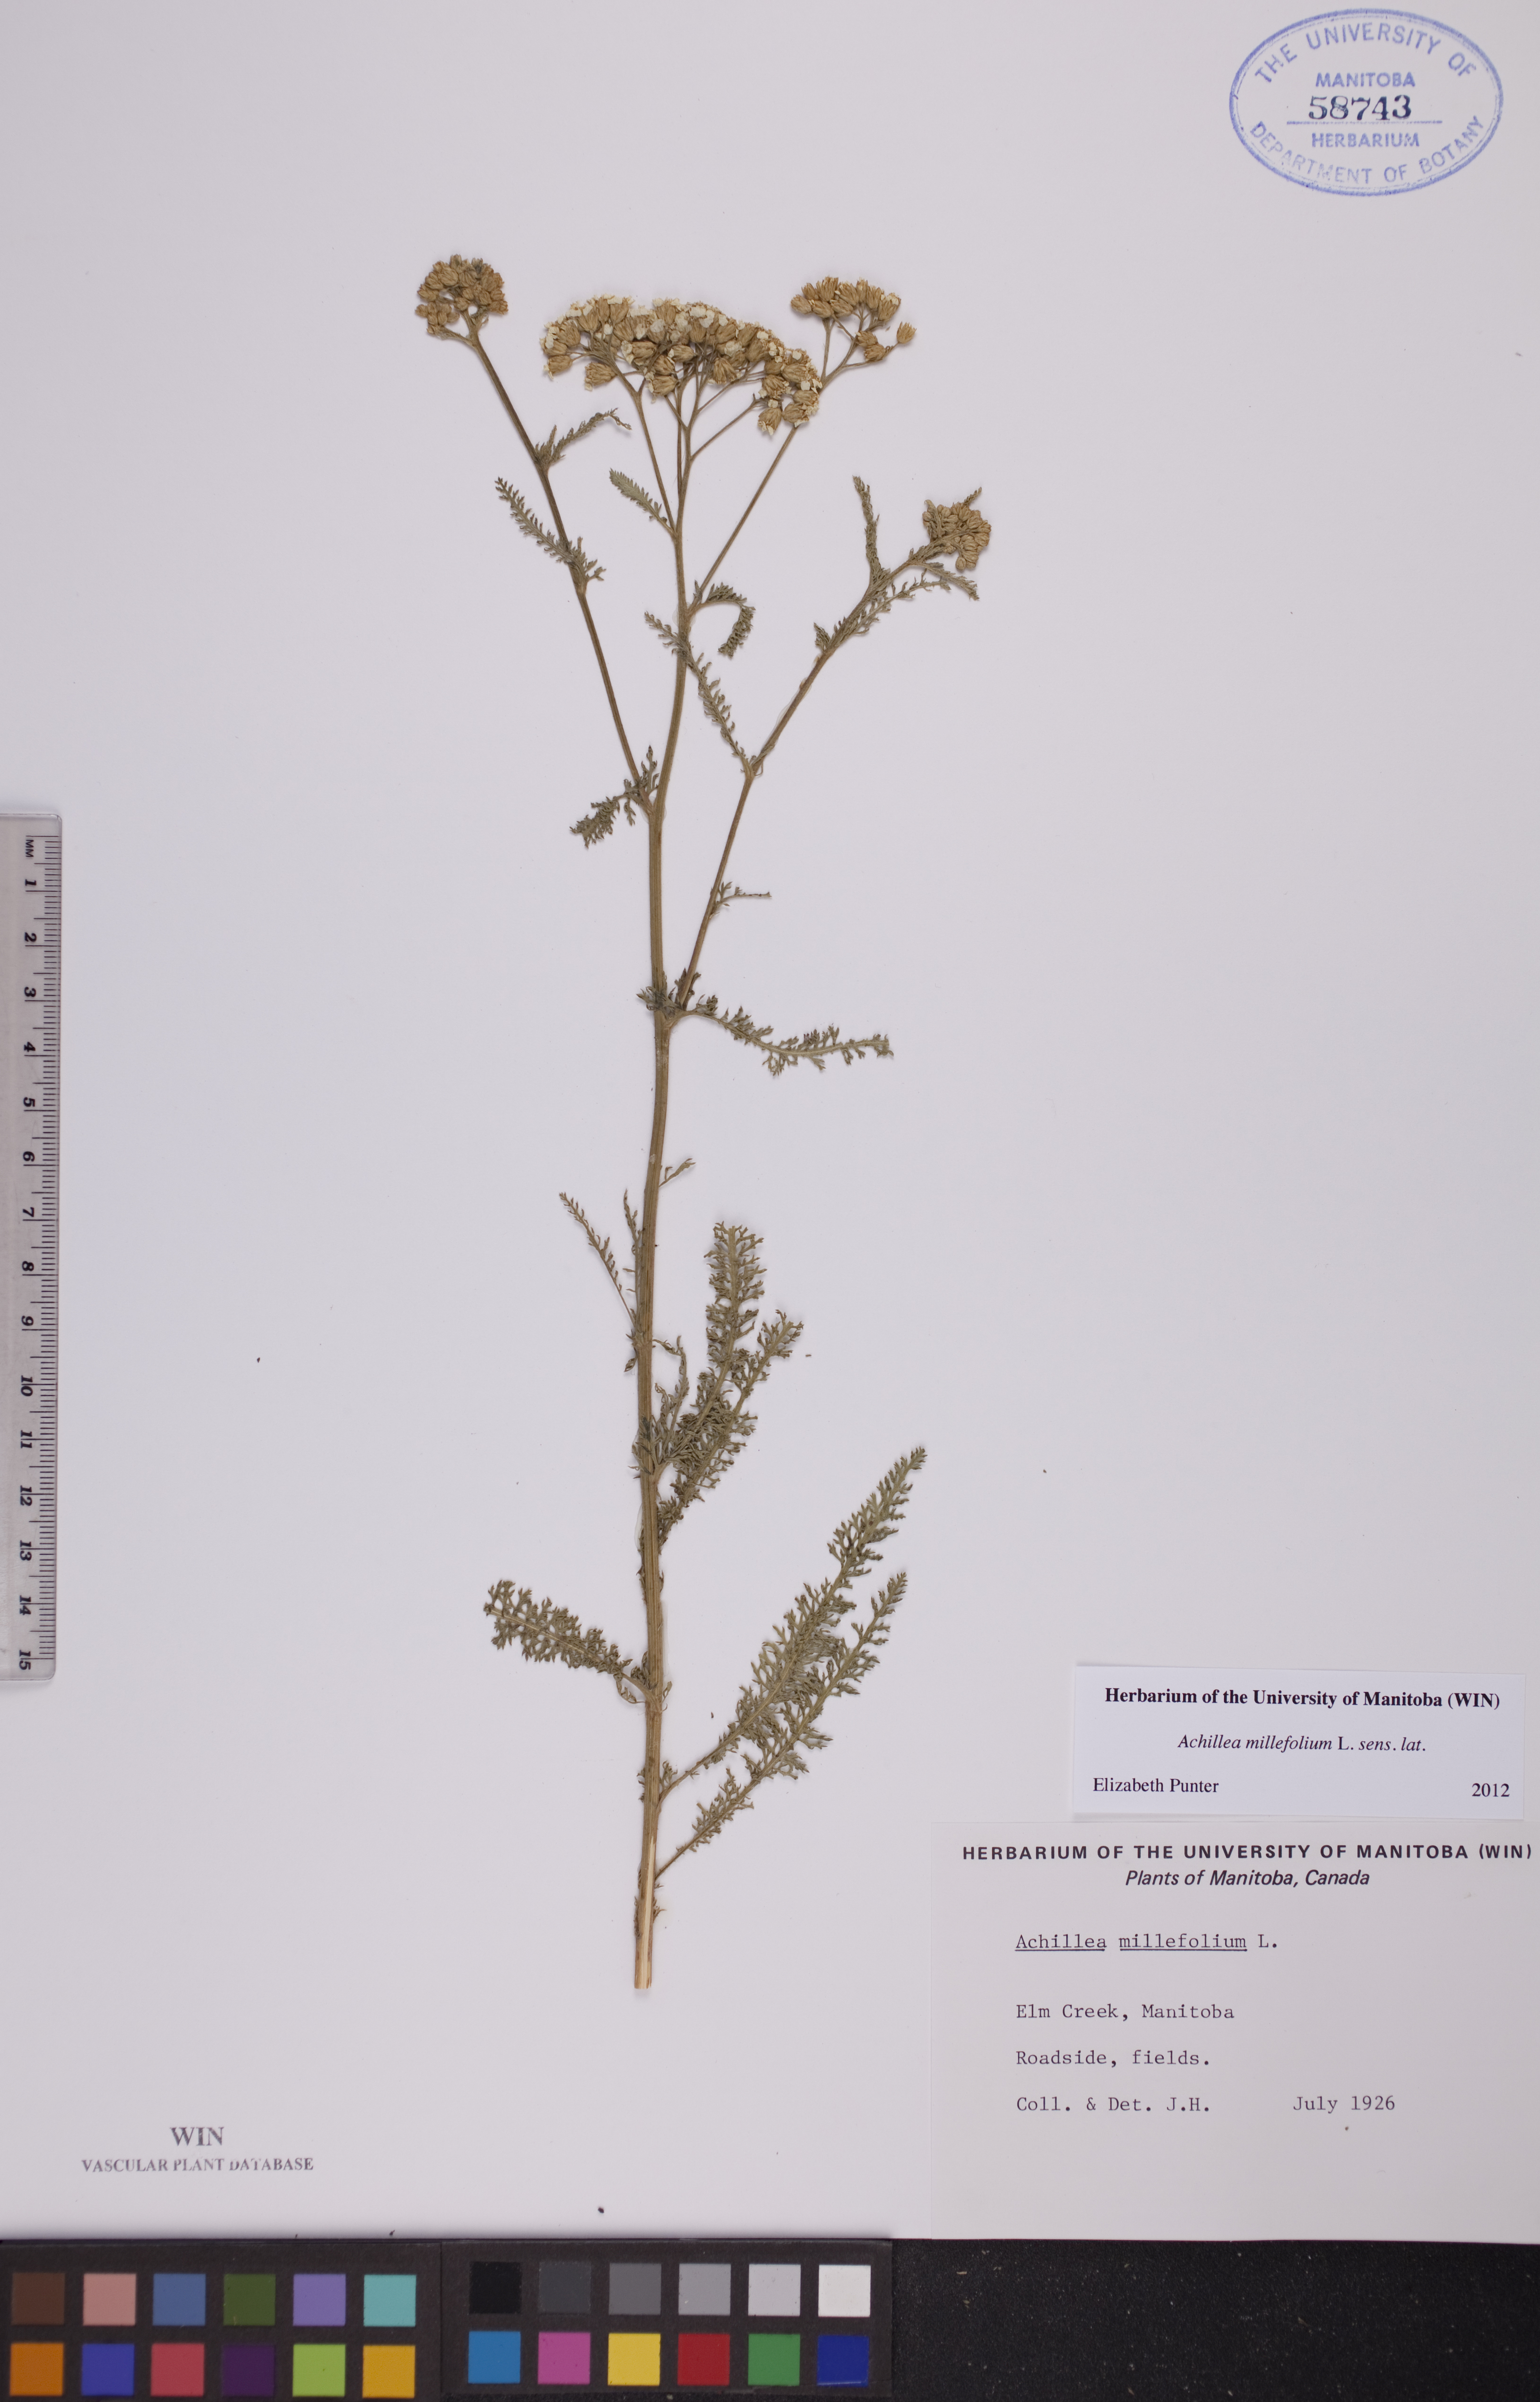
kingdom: Plantae
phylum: Tracheophyta
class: Magnoliopsida
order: Asterales
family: Asteraceae
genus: Achillea
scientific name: Achillea millefolium
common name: Yarrow
